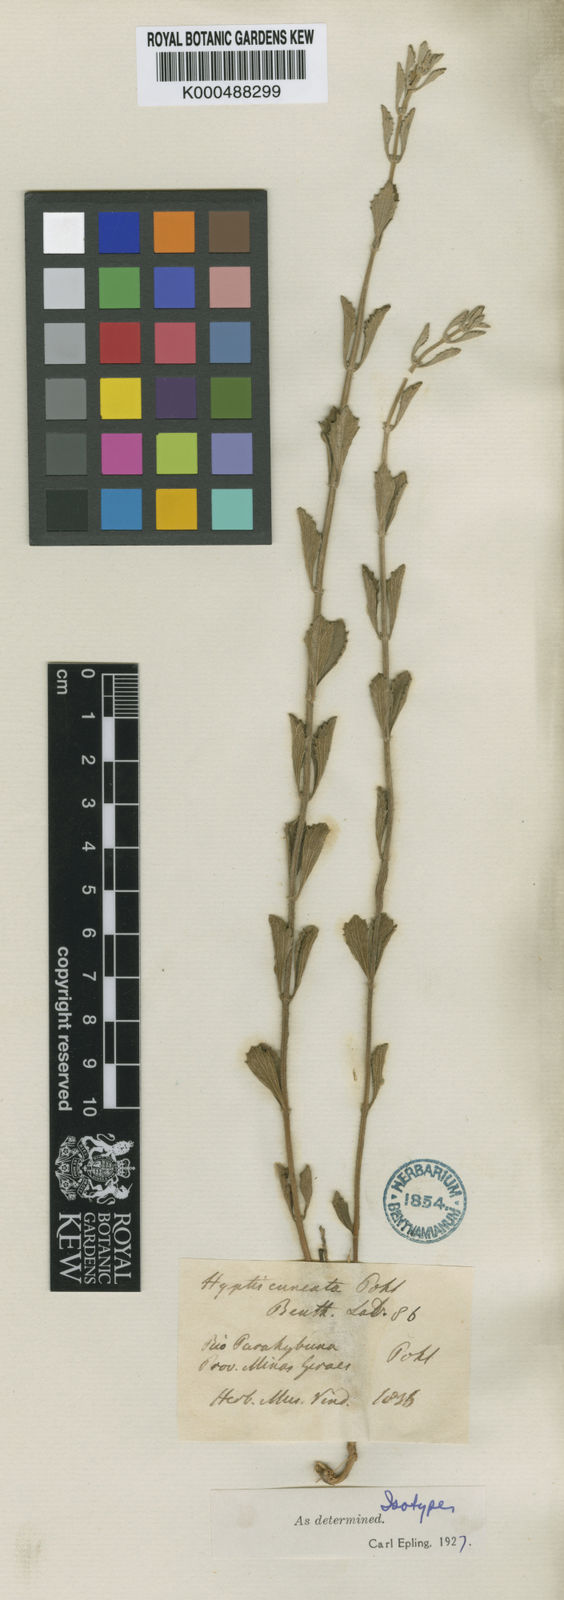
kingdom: Plantae
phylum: Tracheophyta
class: Magnoliopsida
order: Lamiales
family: Lamiaceae
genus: Cyanocephalus
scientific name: Cyanocephalus cuneatus
